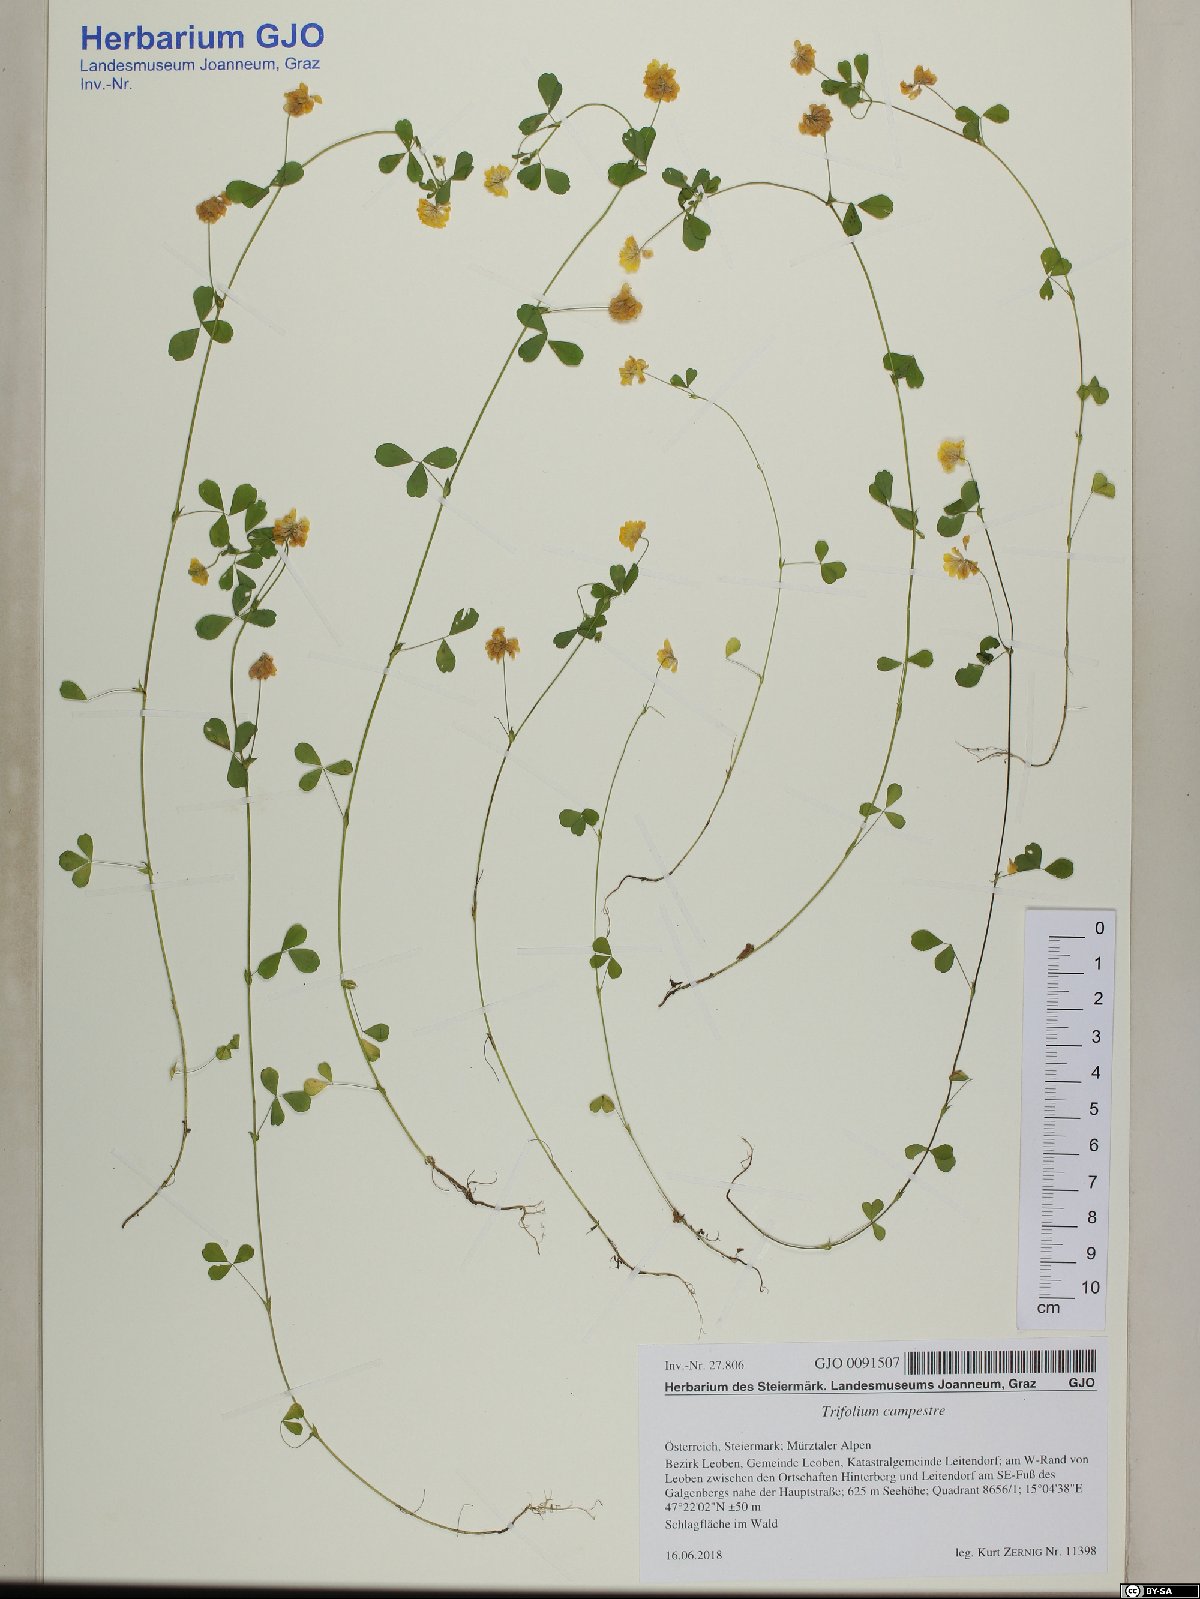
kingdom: Plantae
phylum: Tracheophyta
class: Magnoliopsida
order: Fabales
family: Fabaceae
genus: Trifolium
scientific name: Trifolium campestre
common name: Field clover
